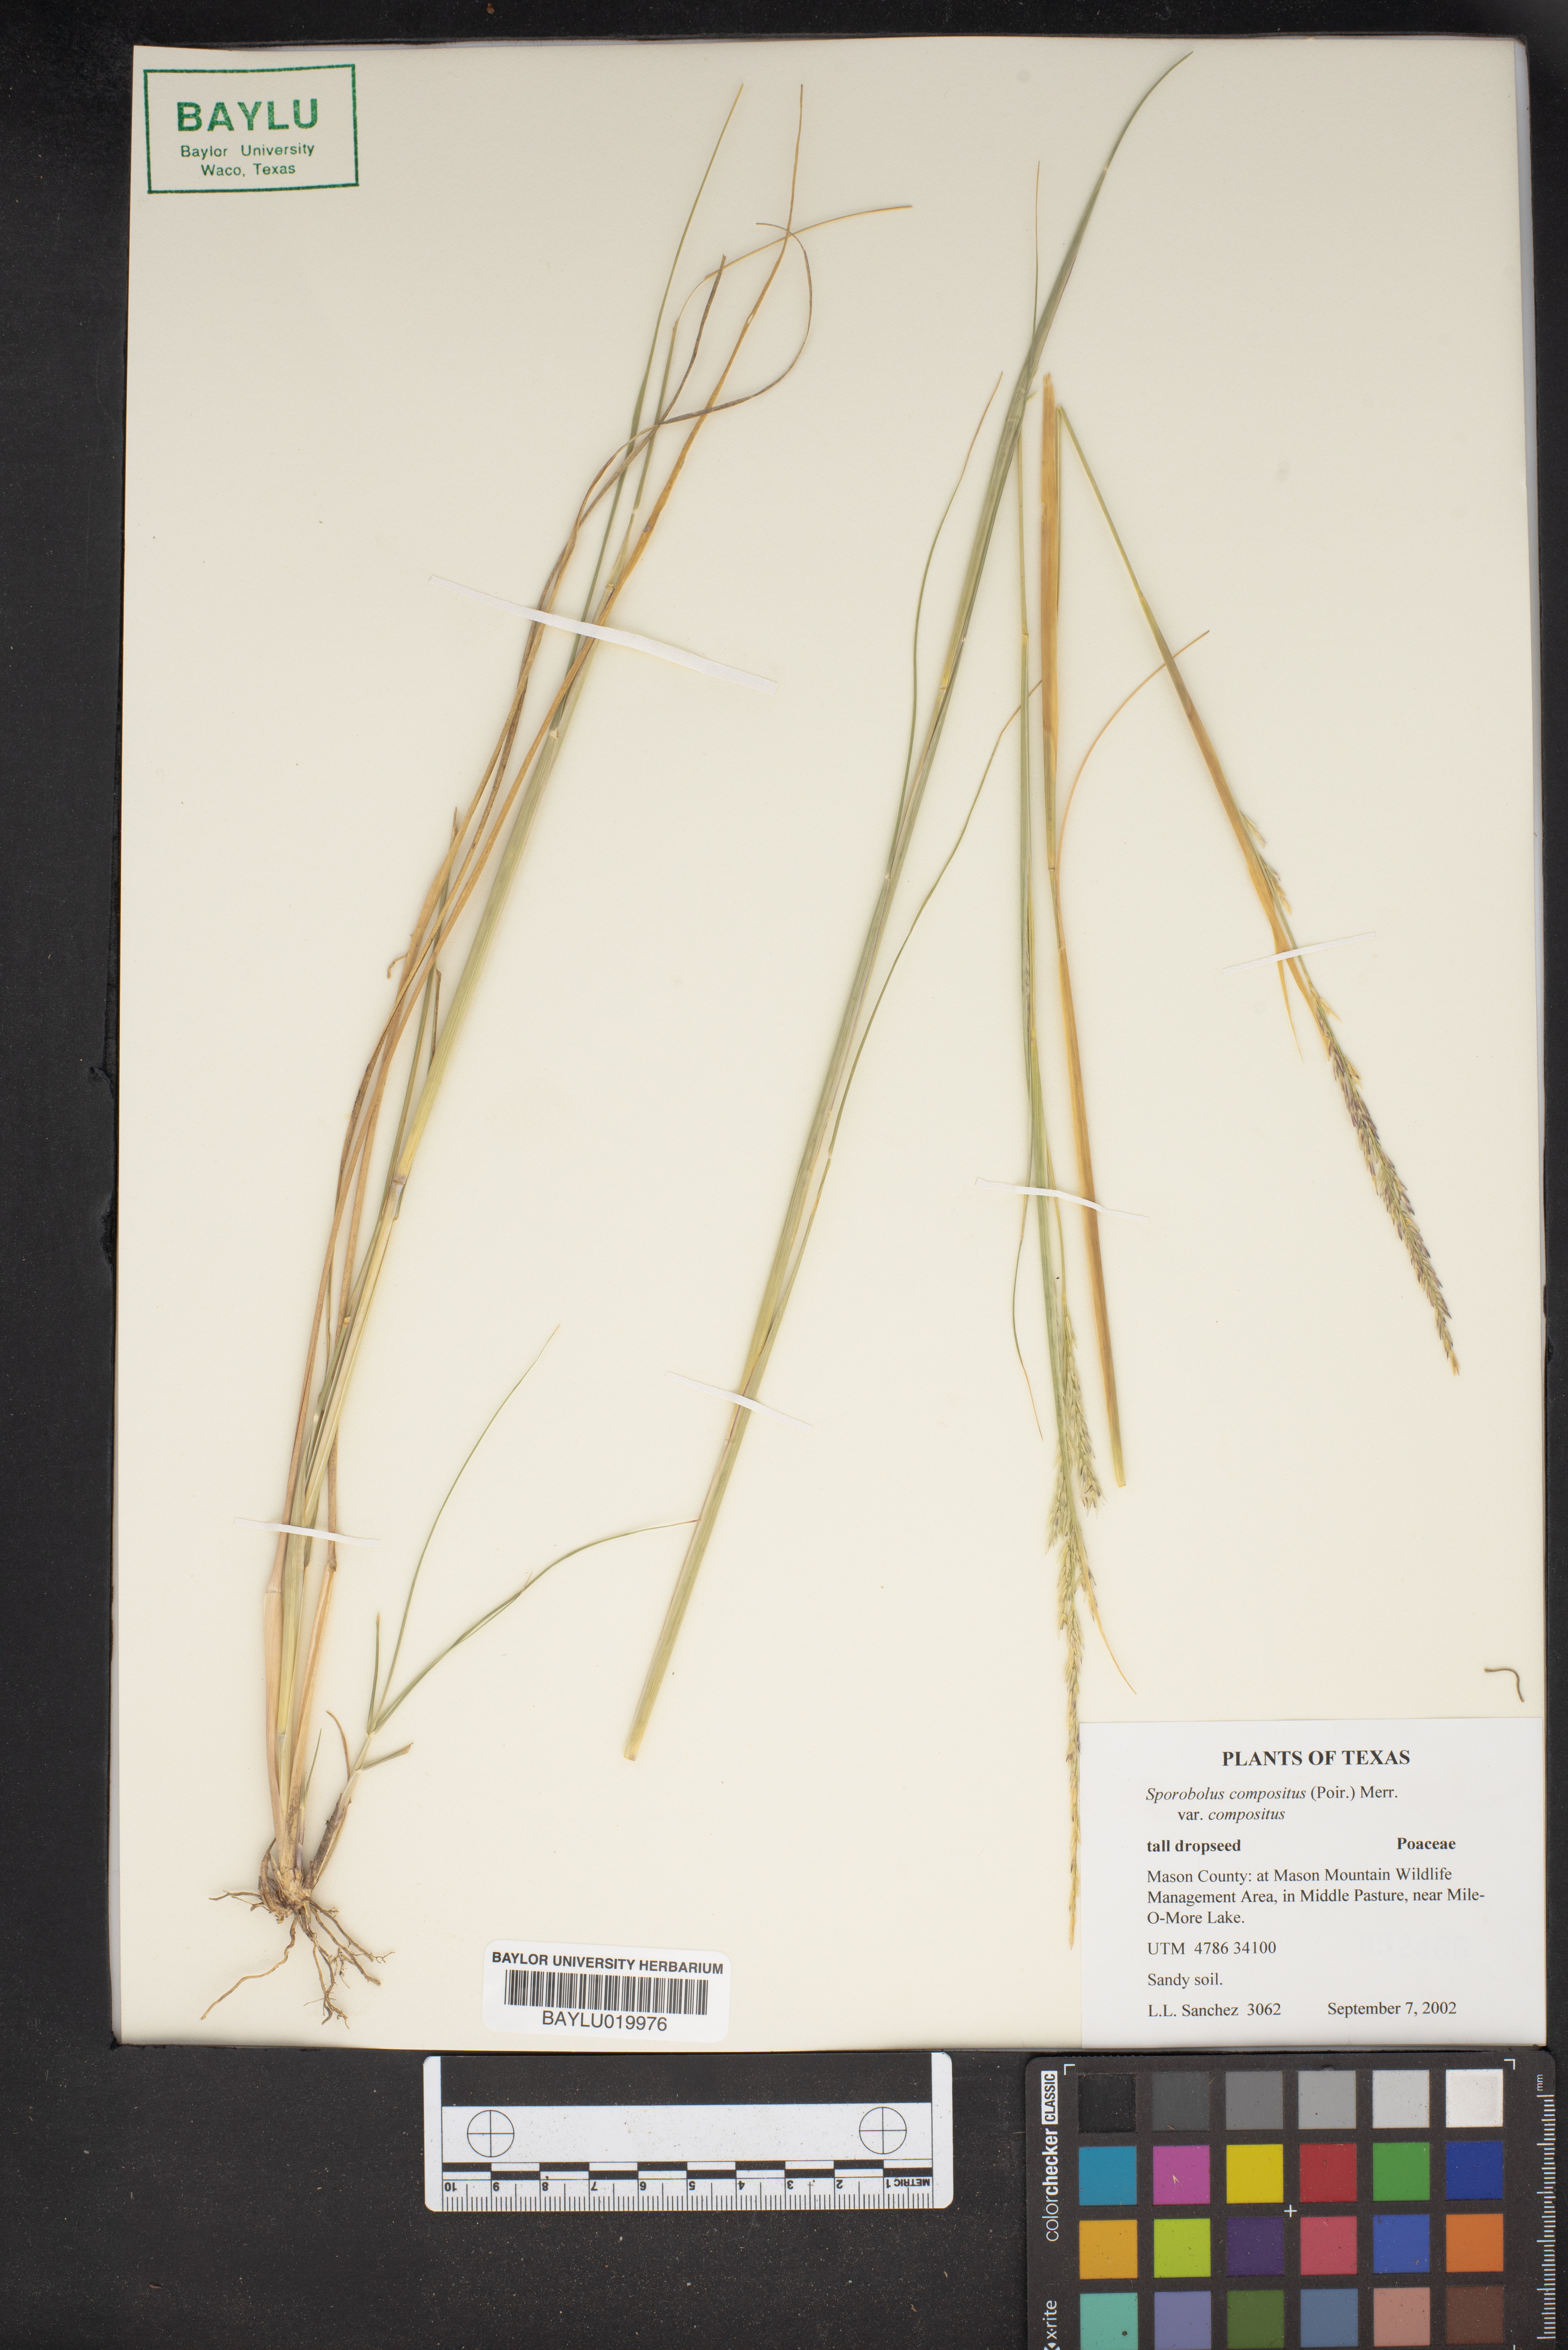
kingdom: Plantae
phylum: Tracheophyta
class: Liliopsida
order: Poales
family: Poaceae
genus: Sporobolus
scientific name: Sporobolus compositus
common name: Rough dropseed
